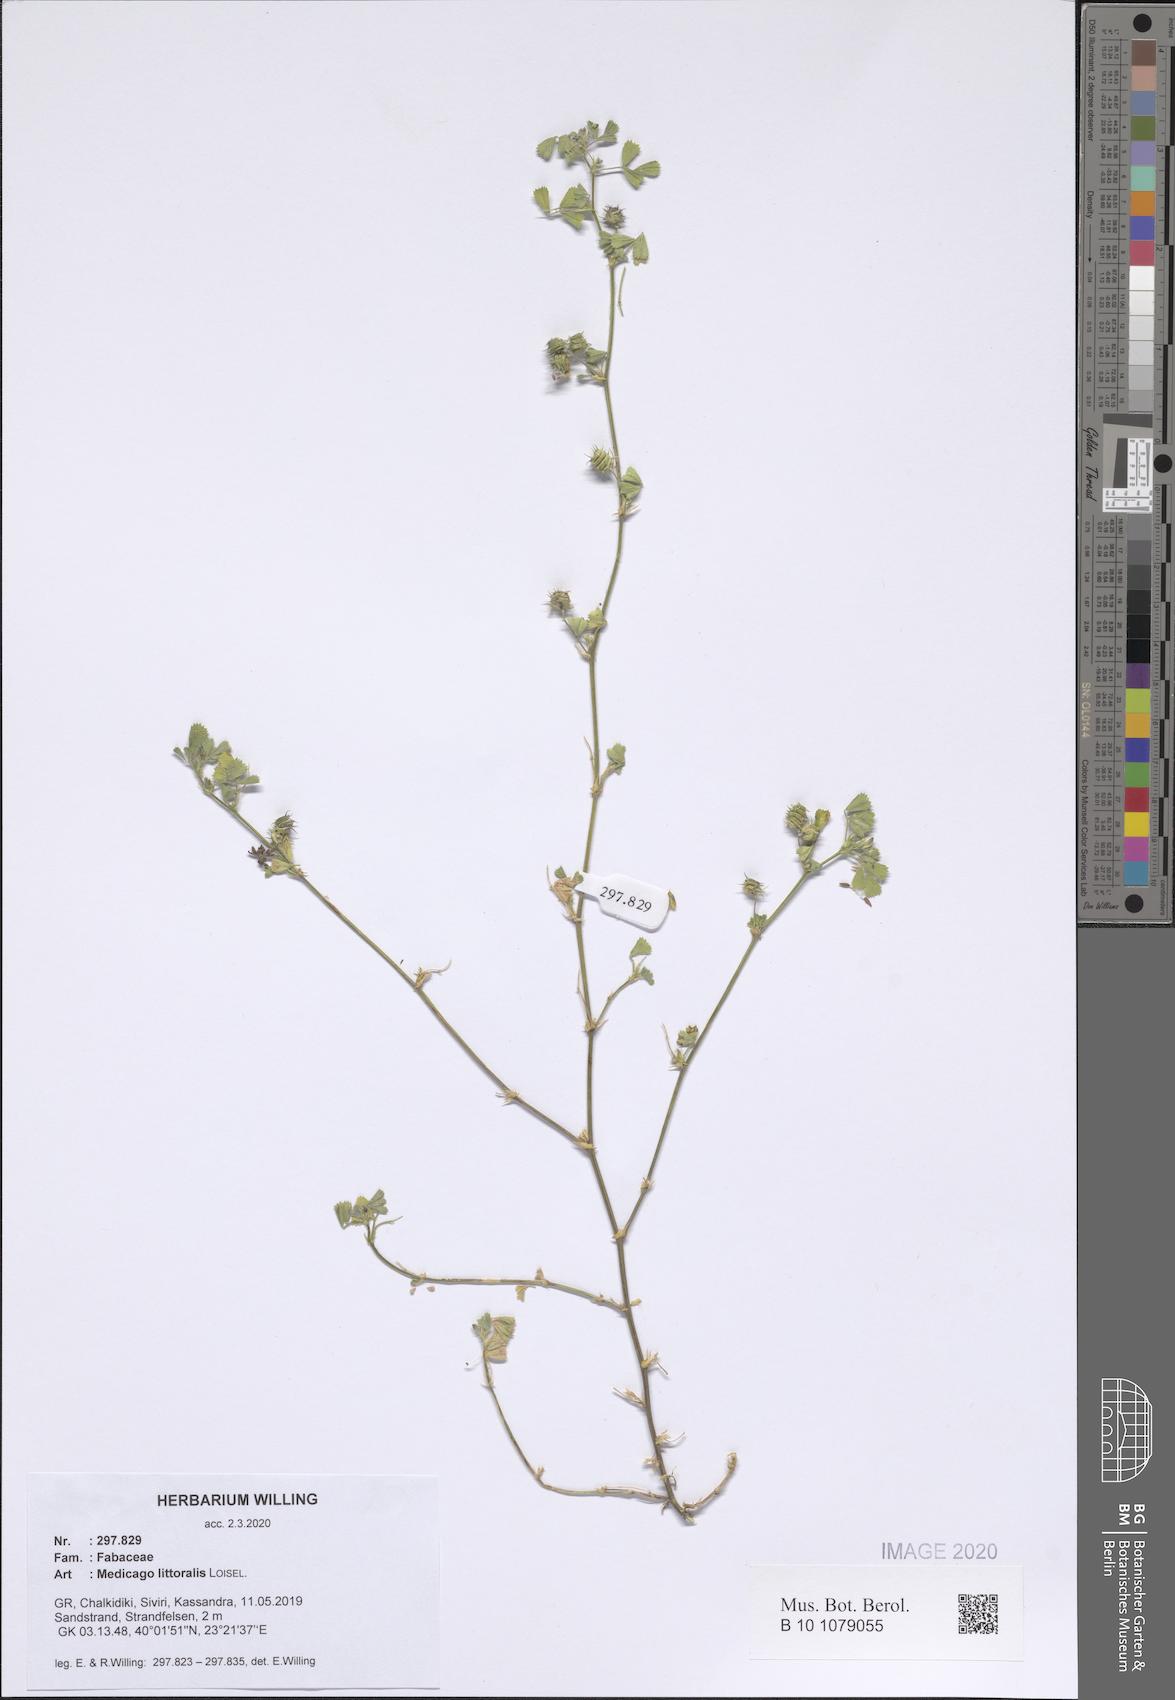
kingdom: Plantae
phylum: Tracheophyta
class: Magnoliopsida
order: Fabales
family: Fabaceae
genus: Medicago
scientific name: Medicago littoralis
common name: Shore medick
